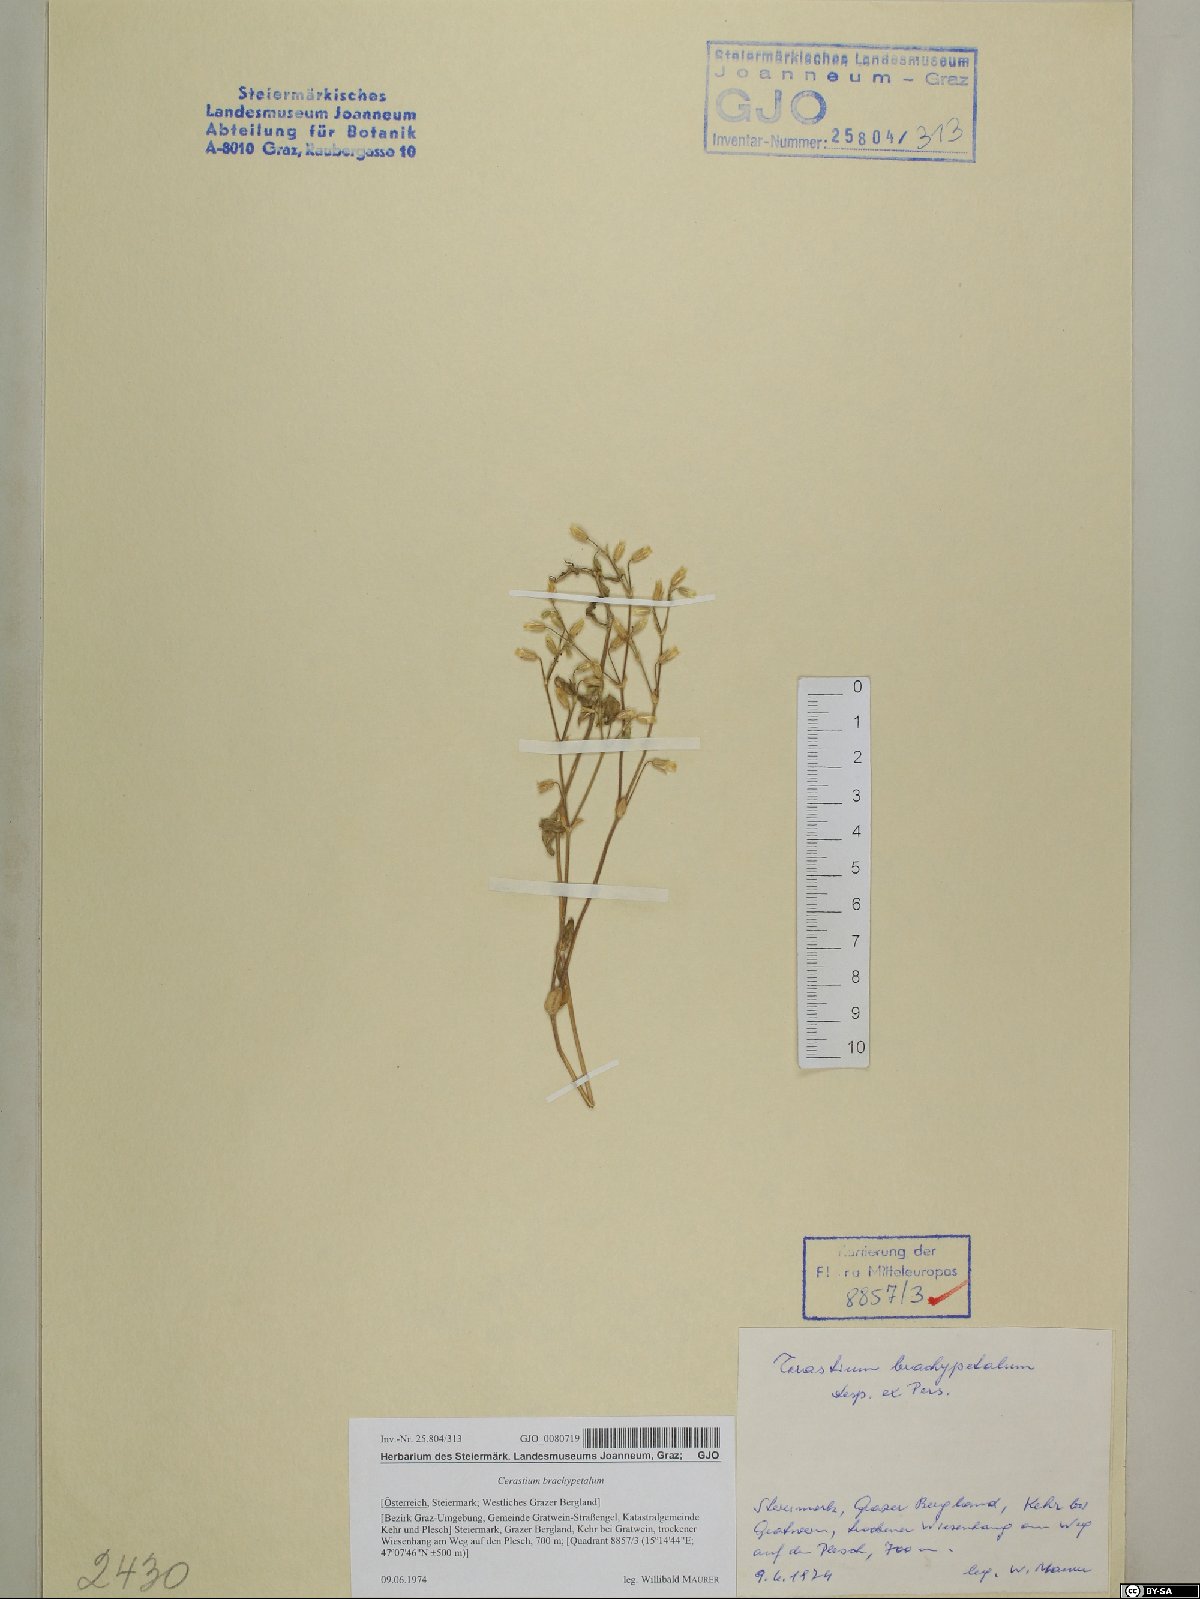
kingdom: Plantae
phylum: Tracheophyta
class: Magnoliopsida
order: Caryophyllales
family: Caryophyllaceae
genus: Cerastium
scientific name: Cerastium brachypetalum
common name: Grey mouse-ear
